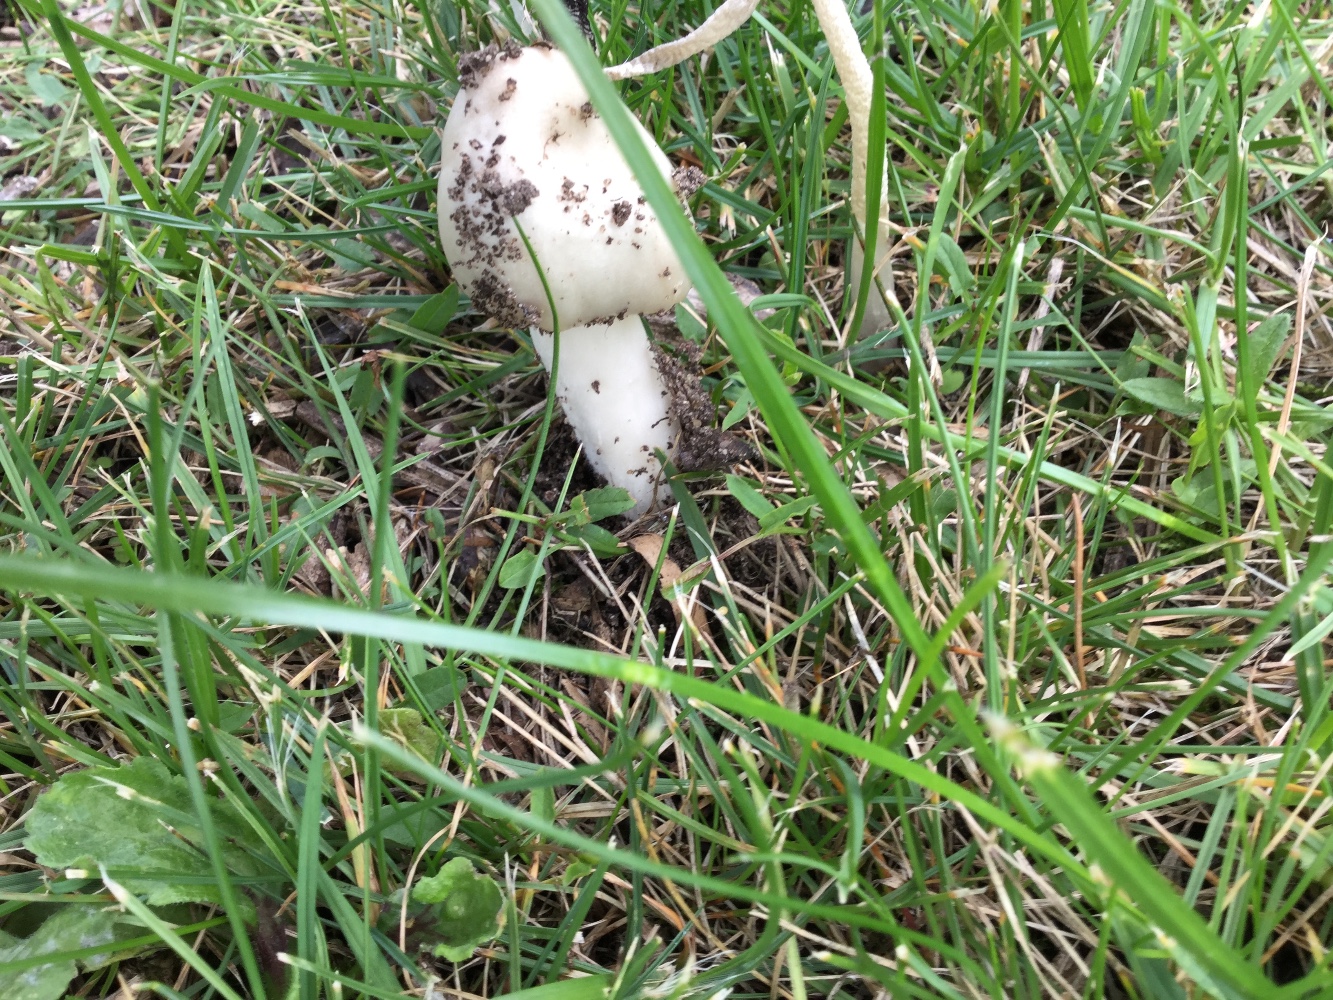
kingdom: Fungi
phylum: Basidiomycota
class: Agaricomycetes
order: Agaricales
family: Pluteaceae
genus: Volvopluteus
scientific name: Volvopluteus gloiocephalus
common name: høj posesvamp
